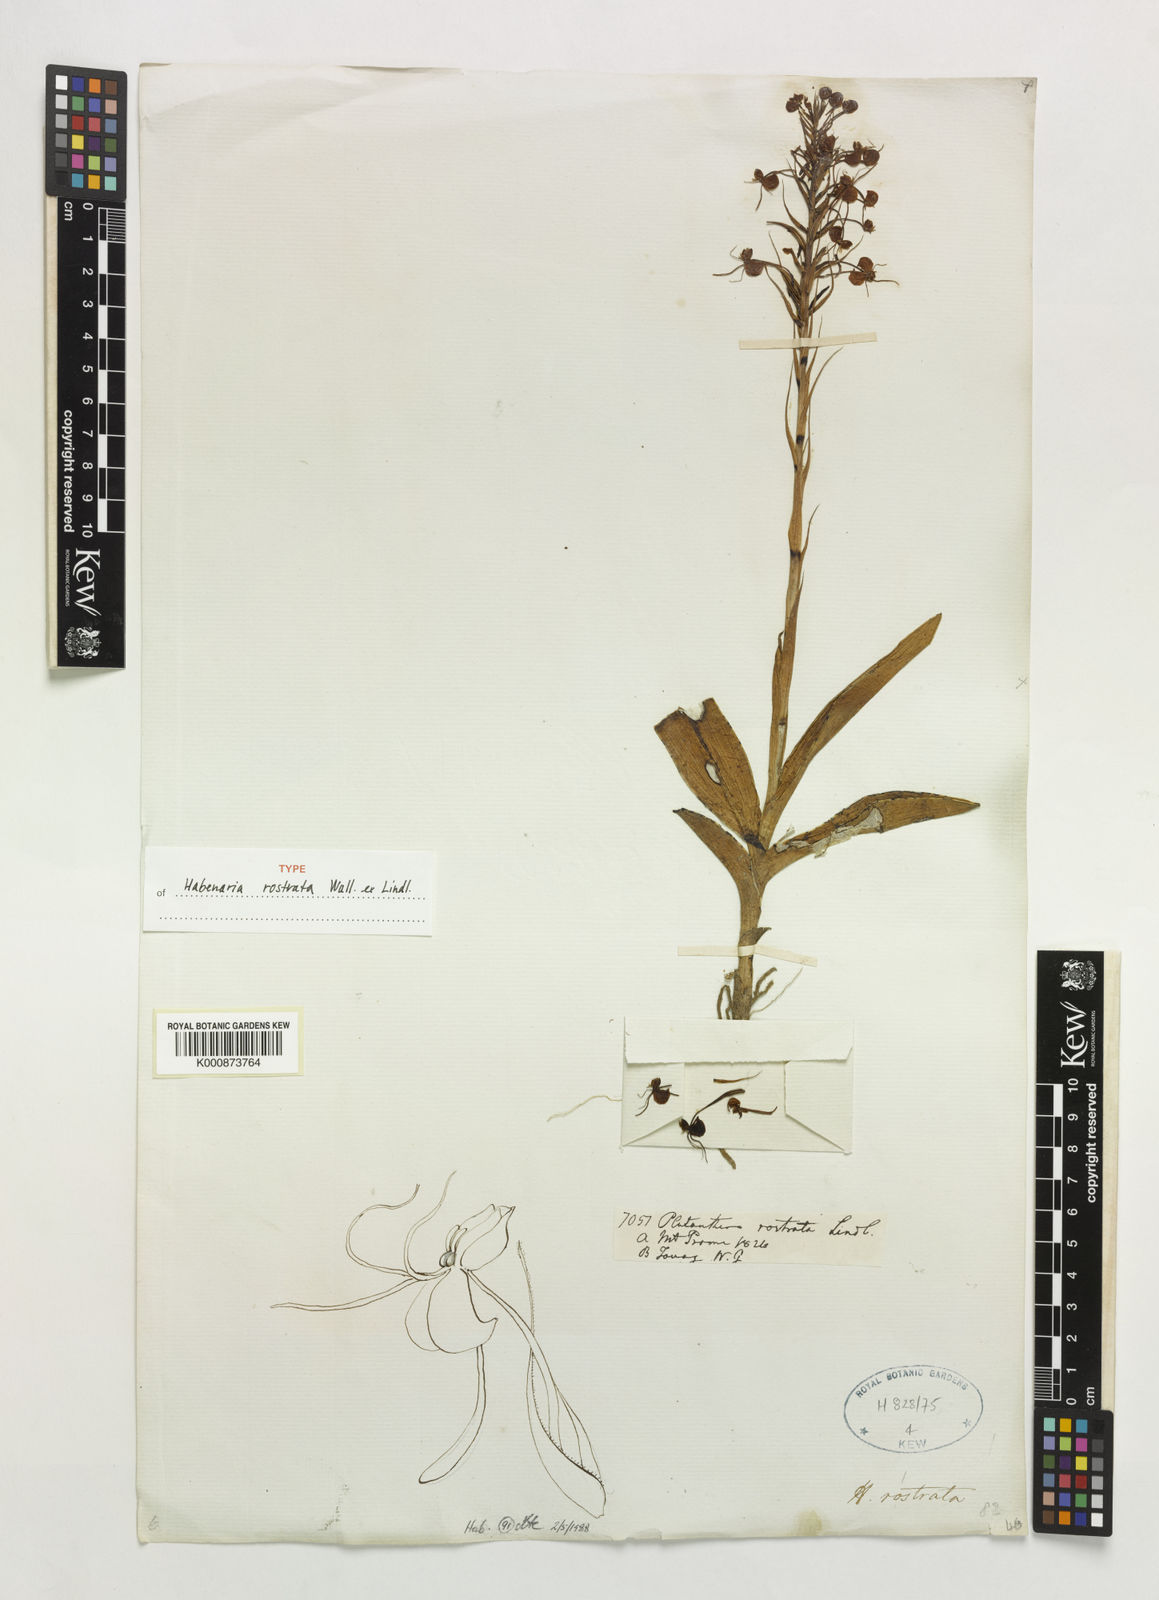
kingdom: Plantae
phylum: Tracheophyta
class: Liliopsida
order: Asparagales
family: Orchidaceae
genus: Habenaria
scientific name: Habenaria rostrata
